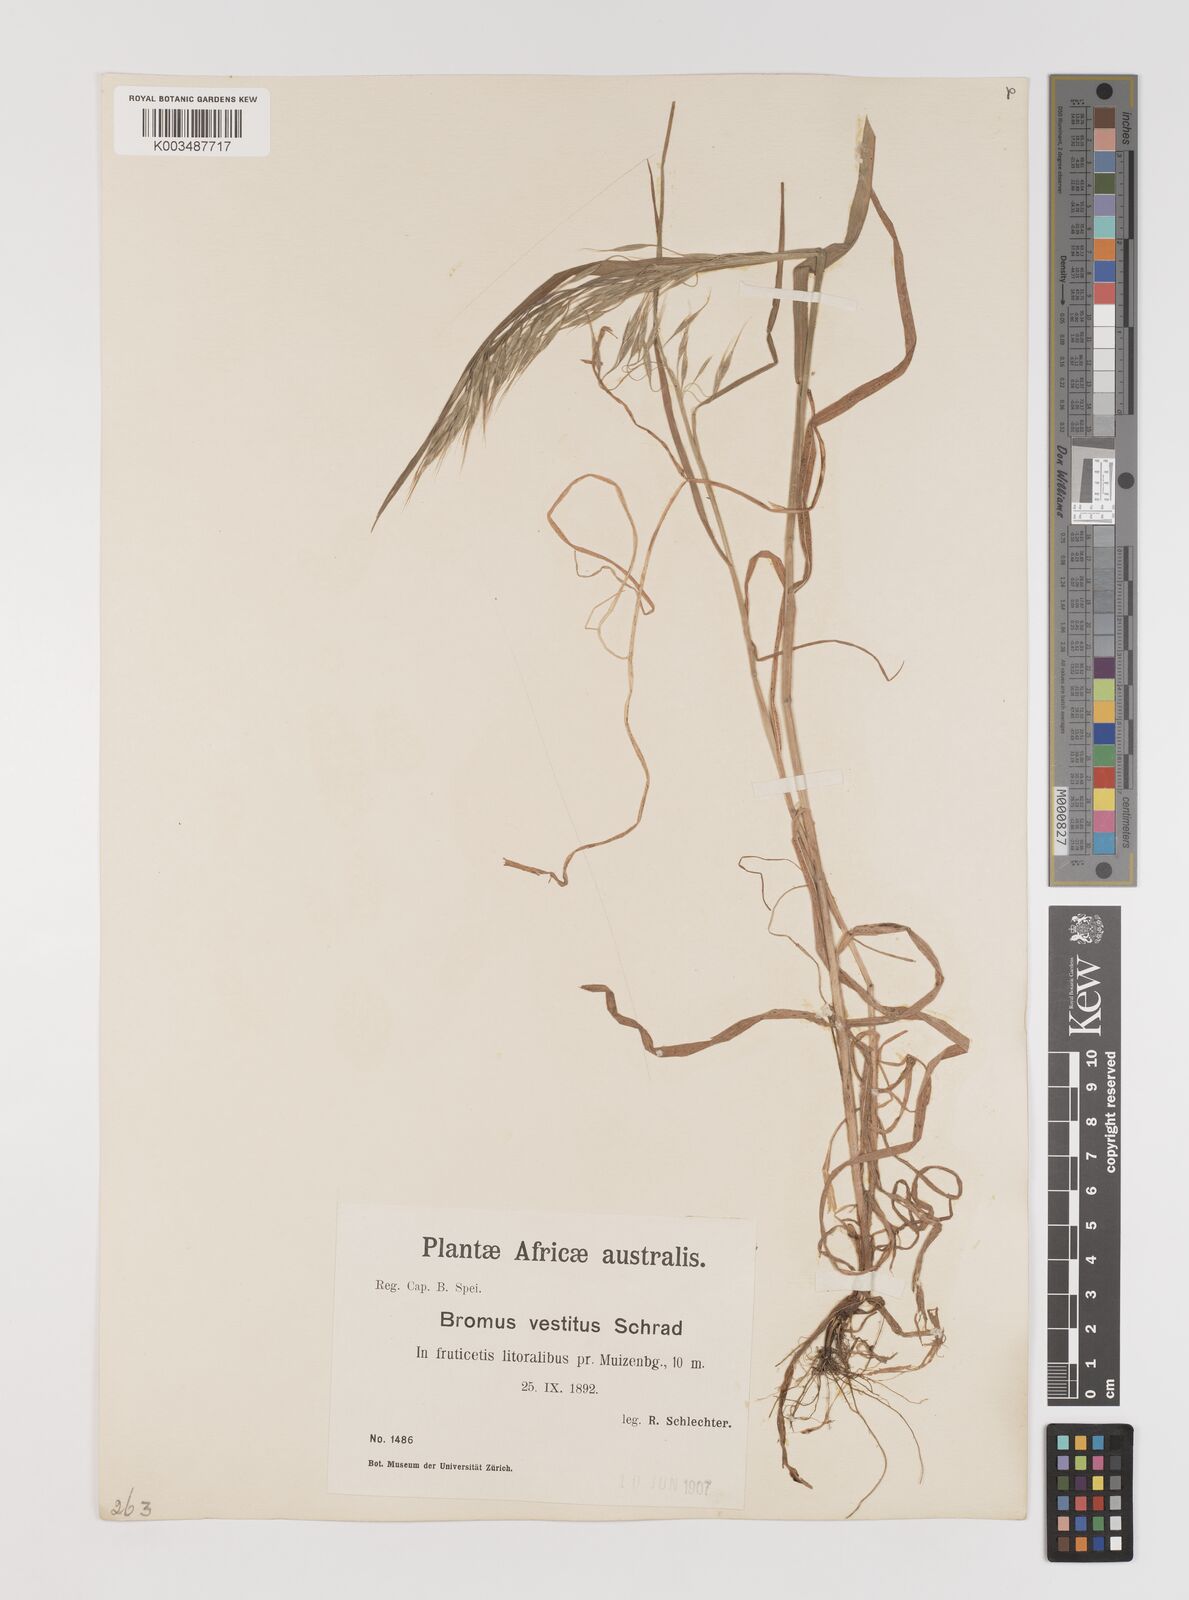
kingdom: Plantae
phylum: Tracheophyta
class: Liliopsida
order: Poales
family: Poaceae
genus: Bromus
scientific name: Bromus pectinatus
